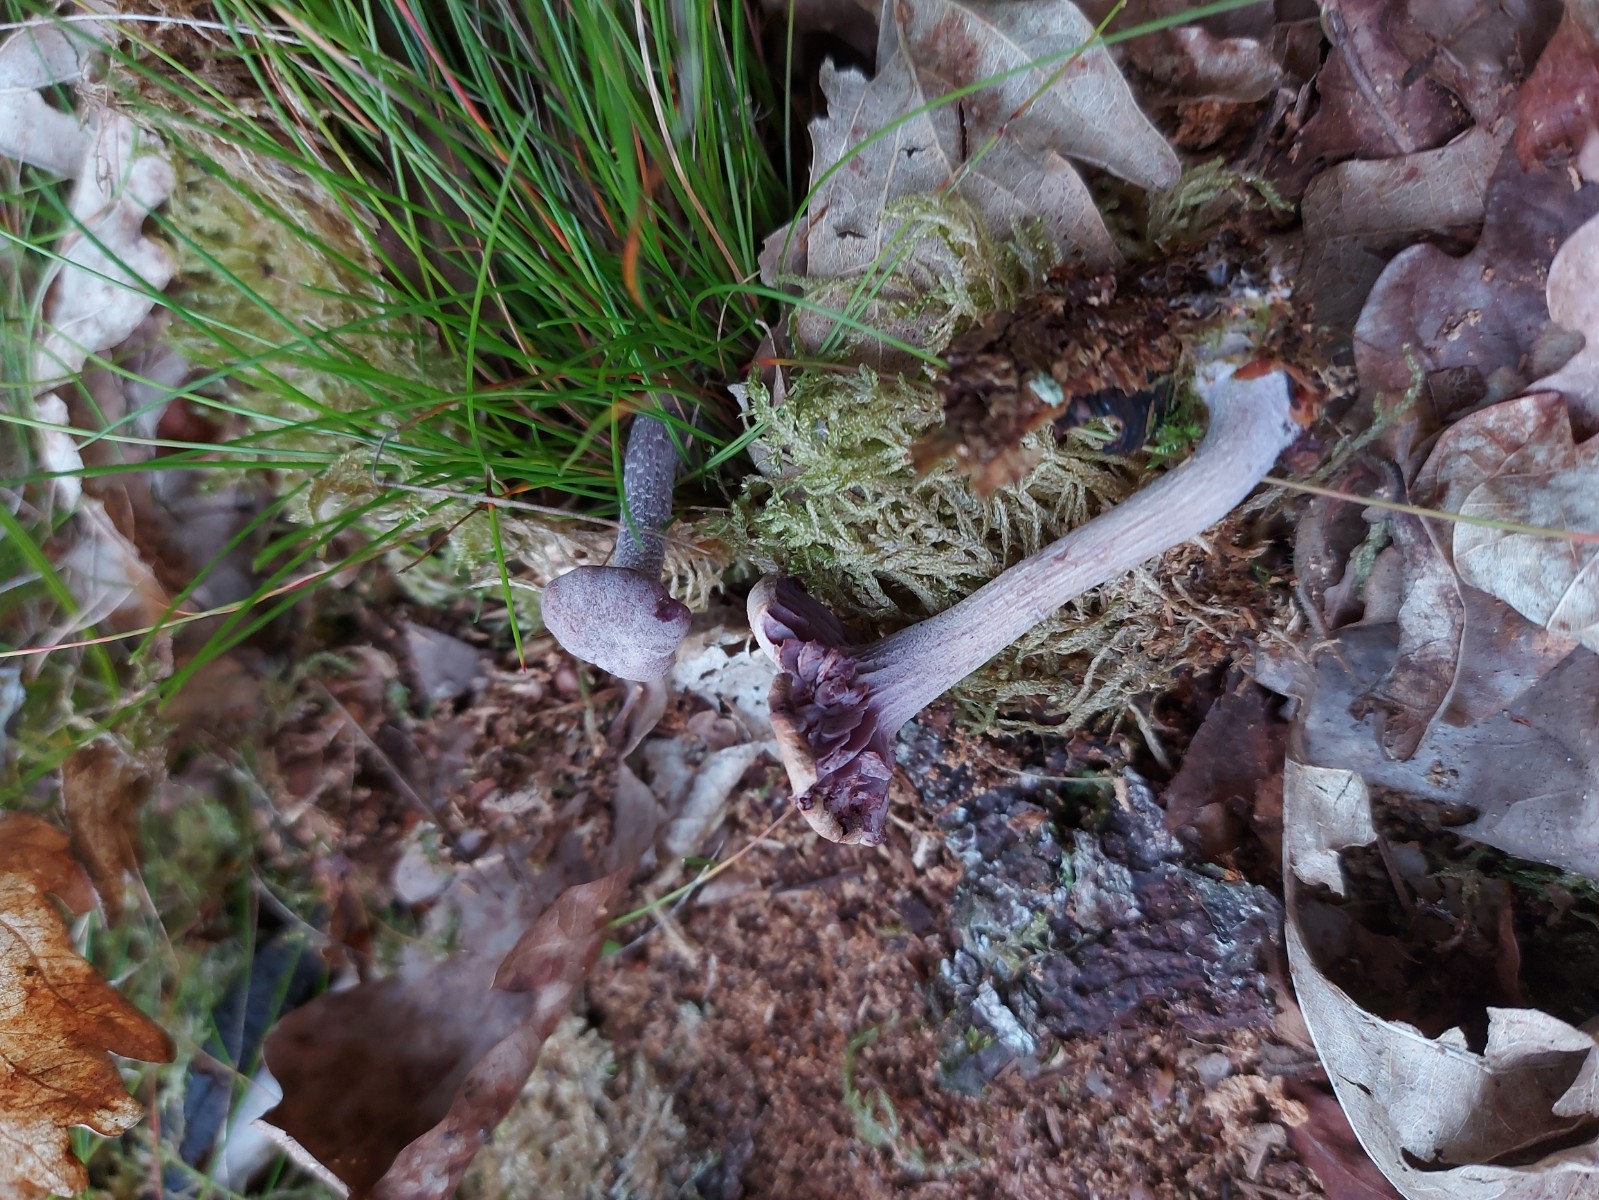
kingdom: Fungi
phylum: Basidiomycota
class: Agaricomycetes
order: Agaricales
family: Hydnangiaceae
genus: Laccaria
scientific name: Laccaria amethystina
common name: violet ametysthat
